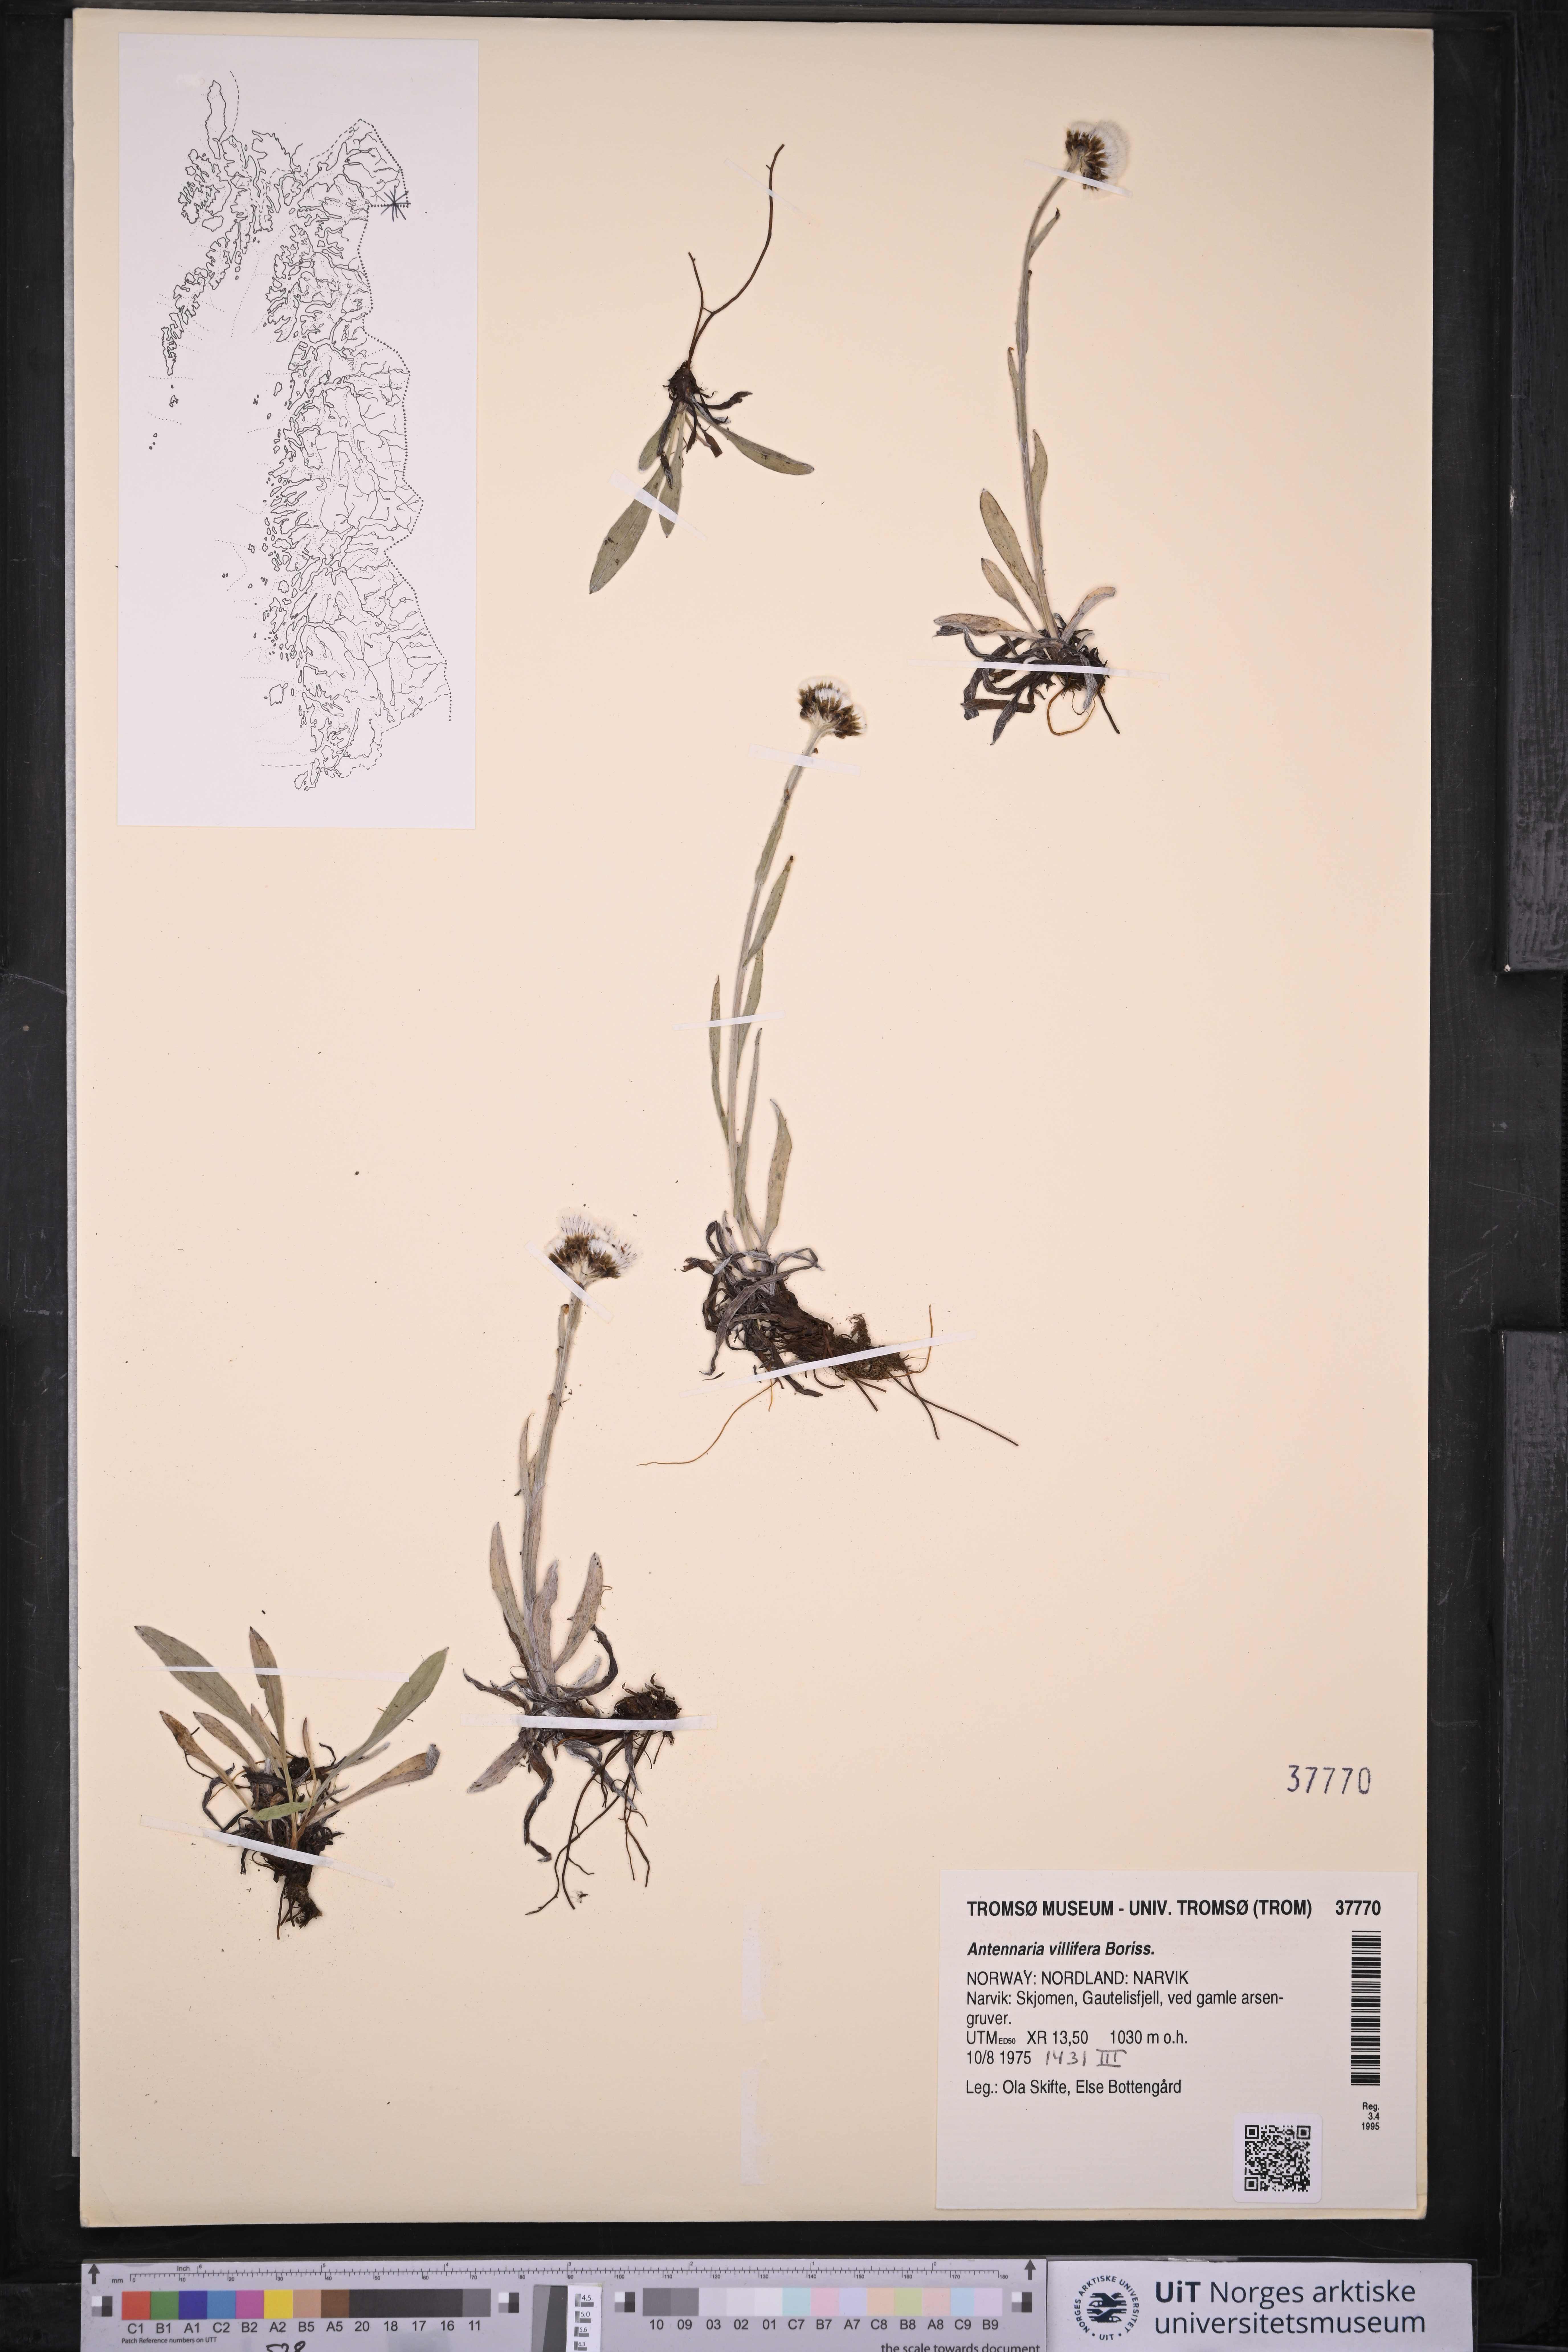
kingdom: Plantae
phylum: Tracheophyta
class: Magnoliopsida
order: Asterales
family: Asteraceae
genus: Antennaria
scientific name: Antennaria lanata
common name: Woolly pussytoes
